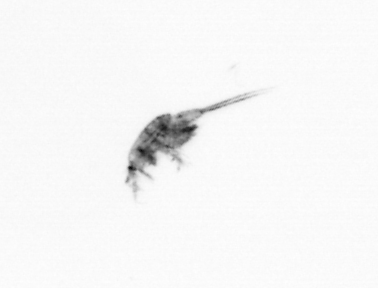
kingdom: Animalia
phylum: Arthropoda
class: Copepoda
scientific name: Copepoda
